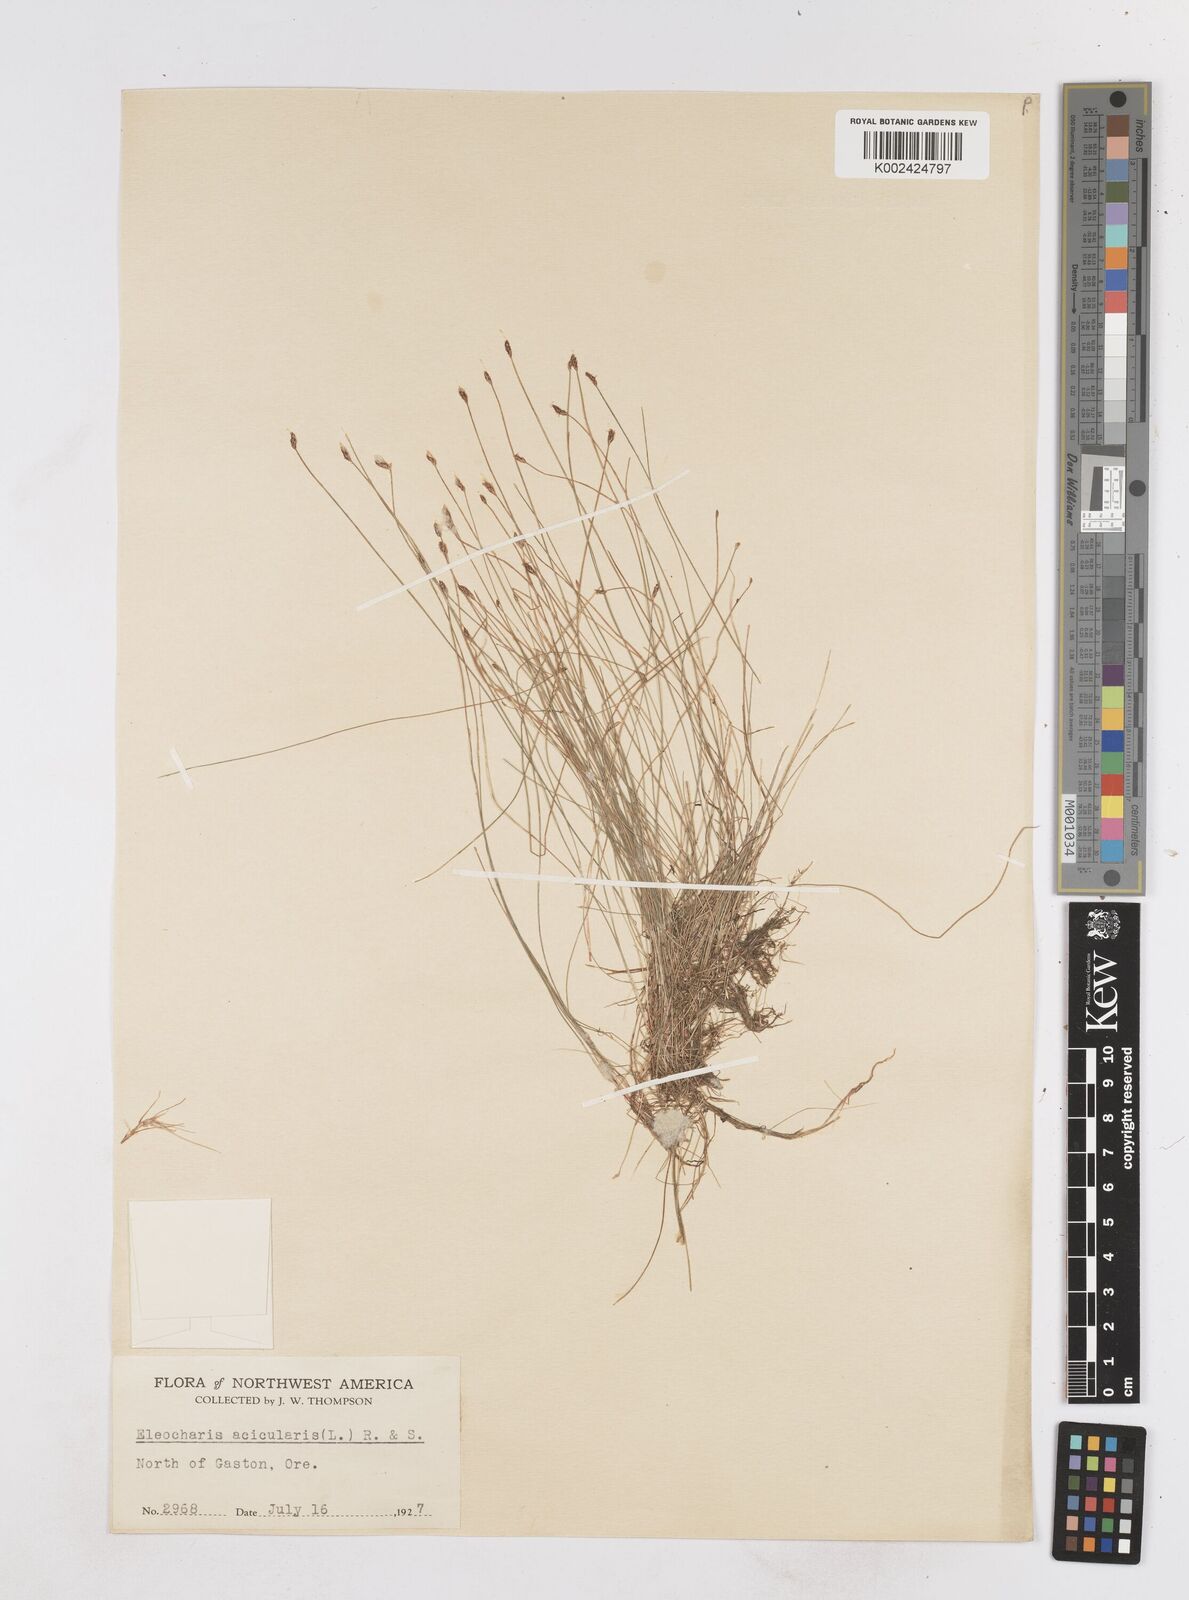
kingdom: Plantae
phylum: Tracheophyta
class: Liliopsida
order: Poales
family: Cyperaceae
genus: Eleocharis
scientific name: Eleocharis acicularis
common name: Needle spike-rush
